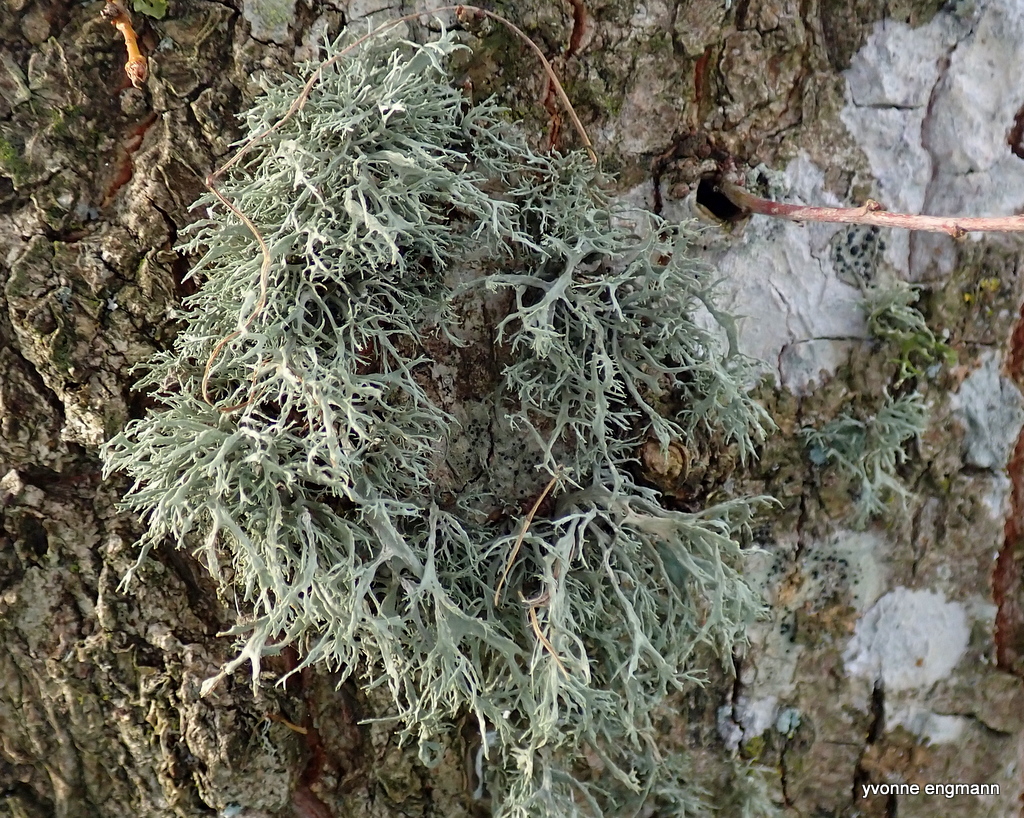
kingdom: Fungi
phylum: Ascomycota
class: Lecanoromycetes
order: Lecanorales
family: Parmeliaceae
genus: Evernia
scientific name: Evernia prunastri
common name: almindelig slåenlav
